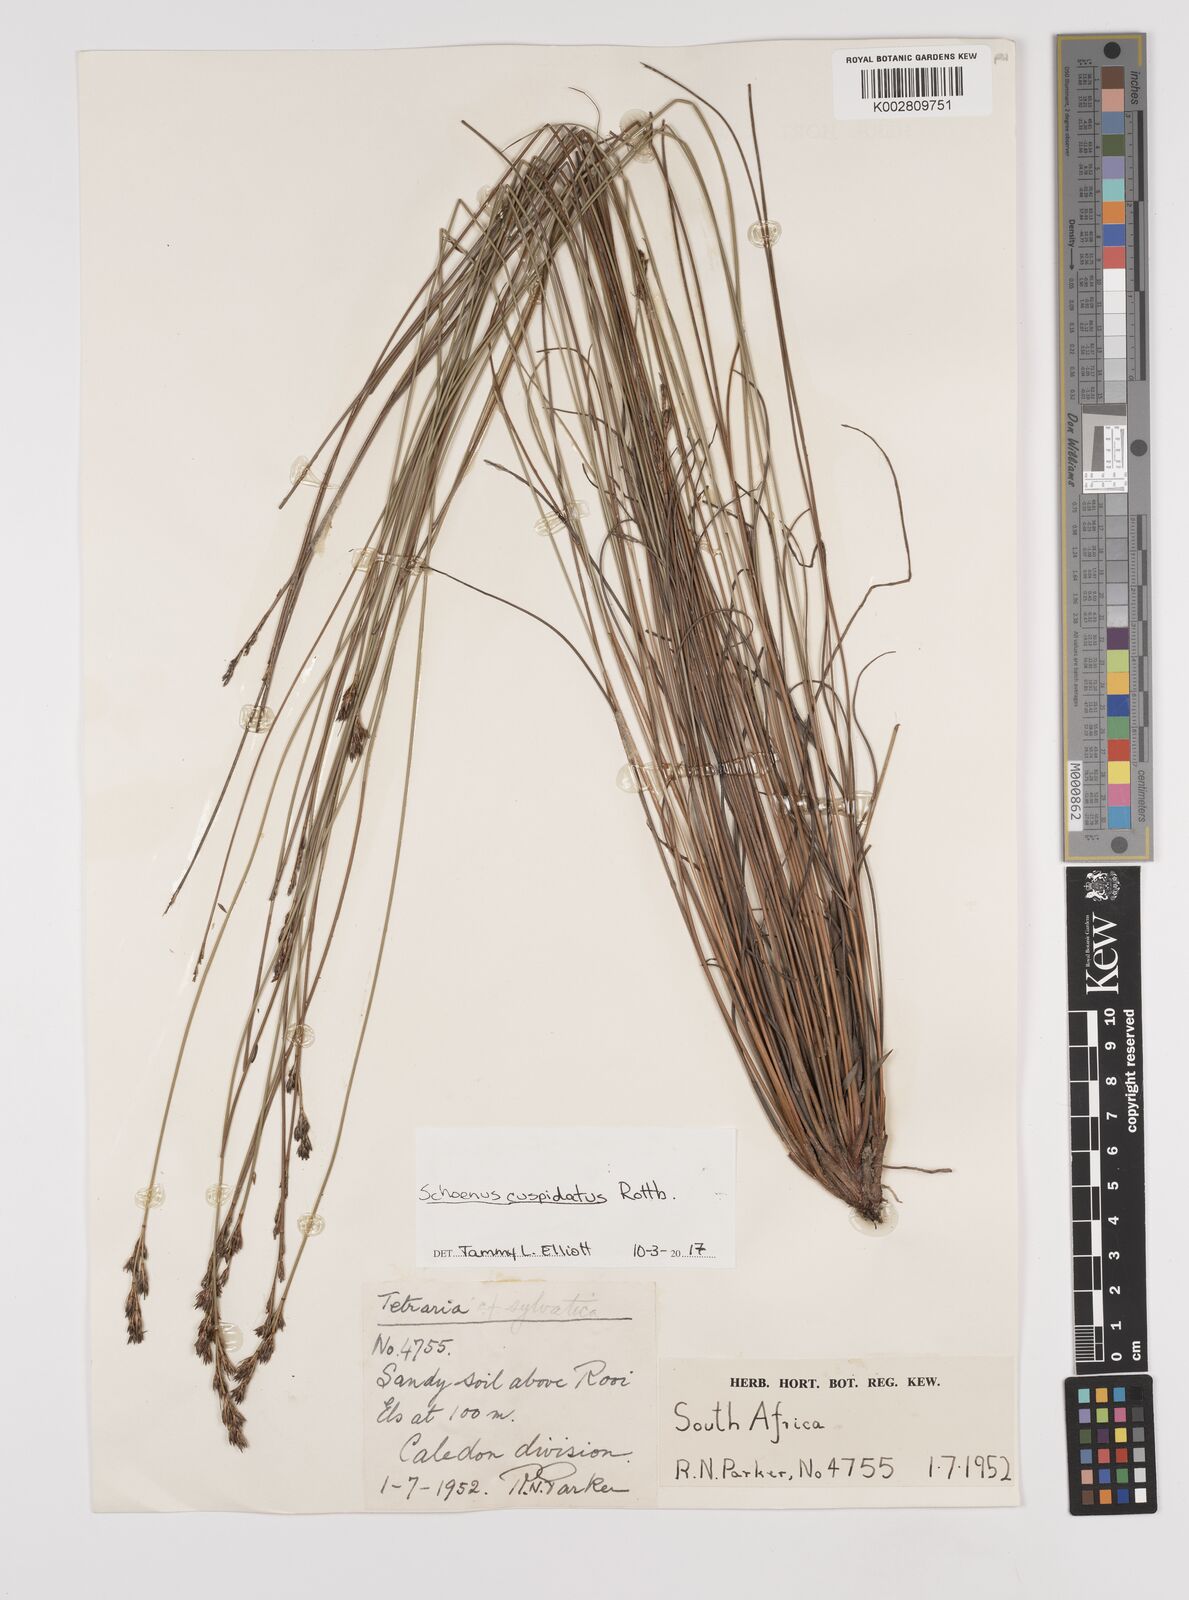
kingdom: Plantae
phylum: Tracheophyta
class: Liliopsida
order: Poales
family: Cyperaceae
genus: Schoenus
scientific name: Schoenus cuspidatus
